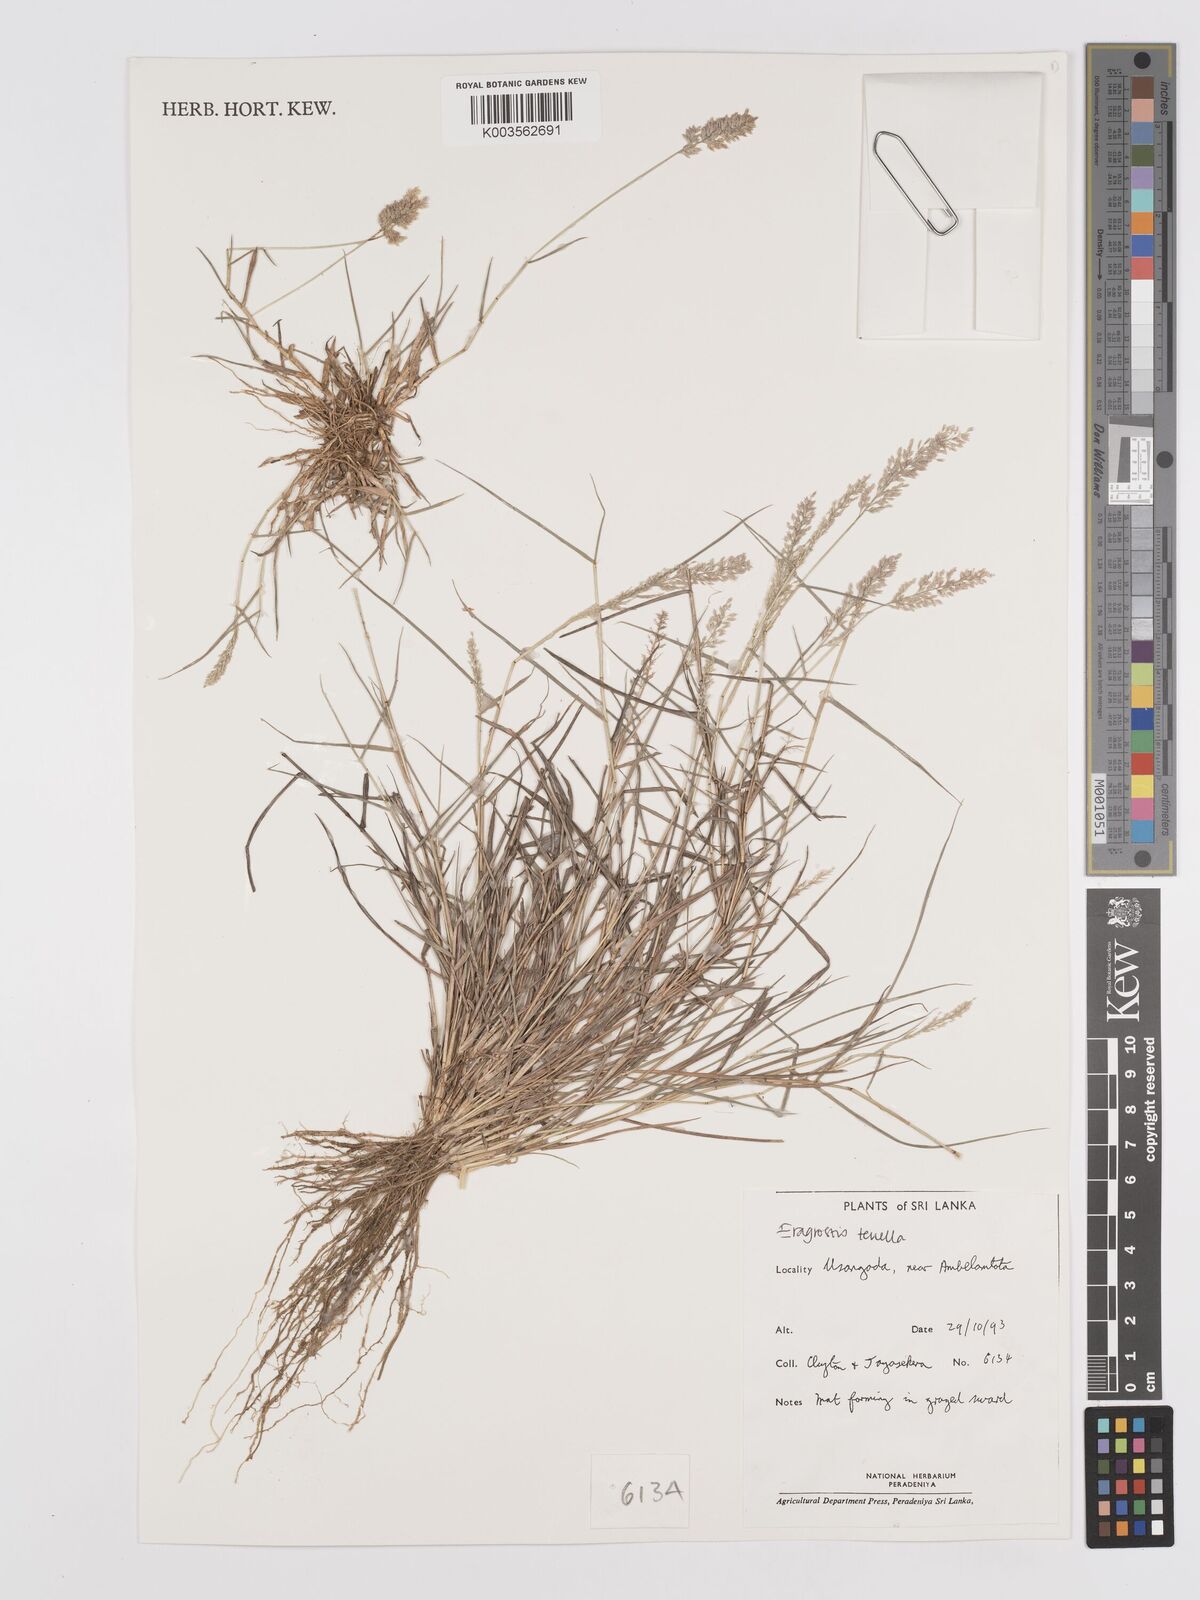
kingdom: Plantae
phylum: Tracheophyta
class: Liliopsida
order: Poales
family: Poaceae
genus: Eragrostis
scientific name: Eragrostis tenella
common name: Japanese lovegrass
